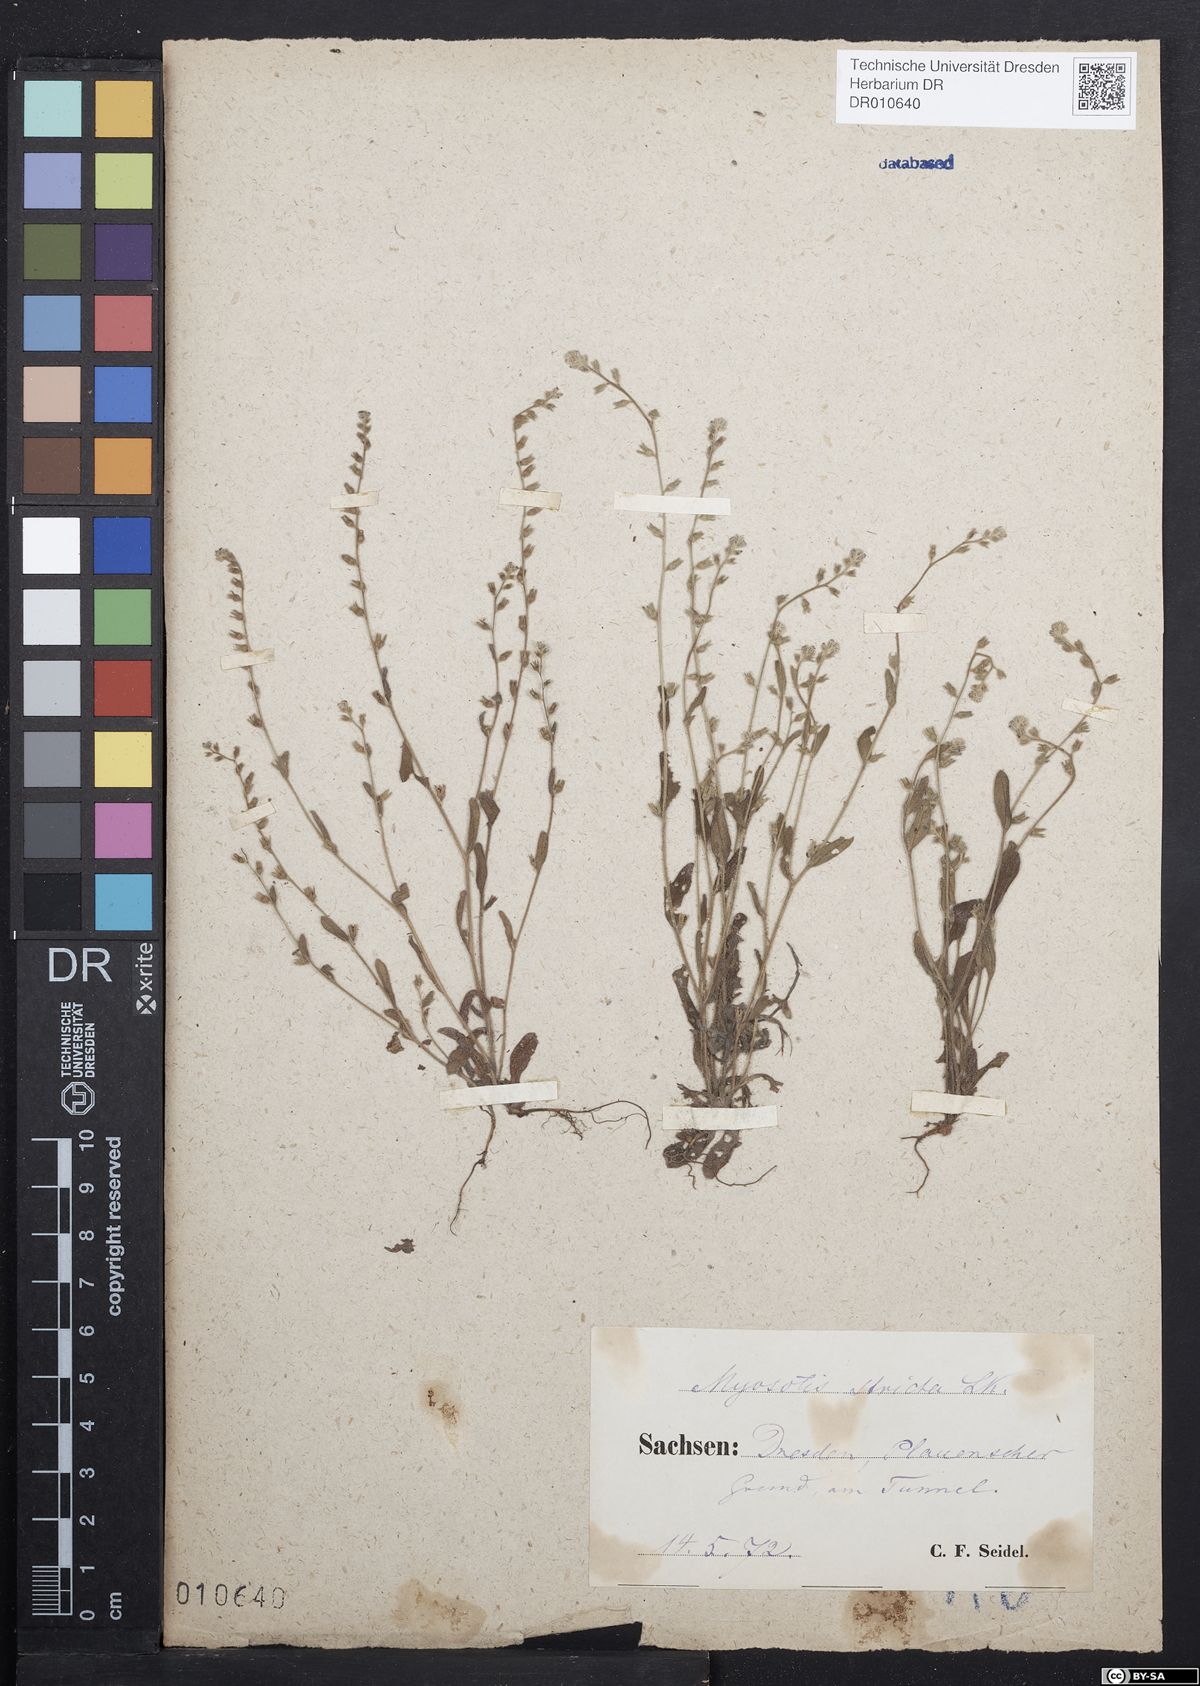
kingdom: Plantae
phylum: Tracheophyta
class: Magnoliopsida
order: Boraginales
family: Boraginaceae
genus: Myosotis
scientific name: Myosotis stricta
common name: Strict forget-me-not
